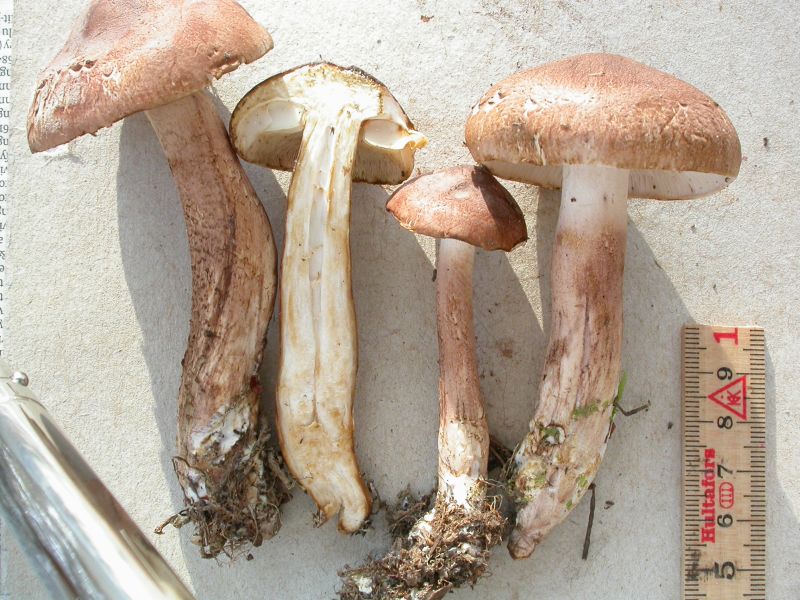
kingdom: Fungi
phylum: Basidiomycota
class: Agaricomycetes
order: Agaricales
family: Tricholomataceae
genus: Tricholoma
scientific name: Tricholoma imbricatum
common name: skællet ridderhat
